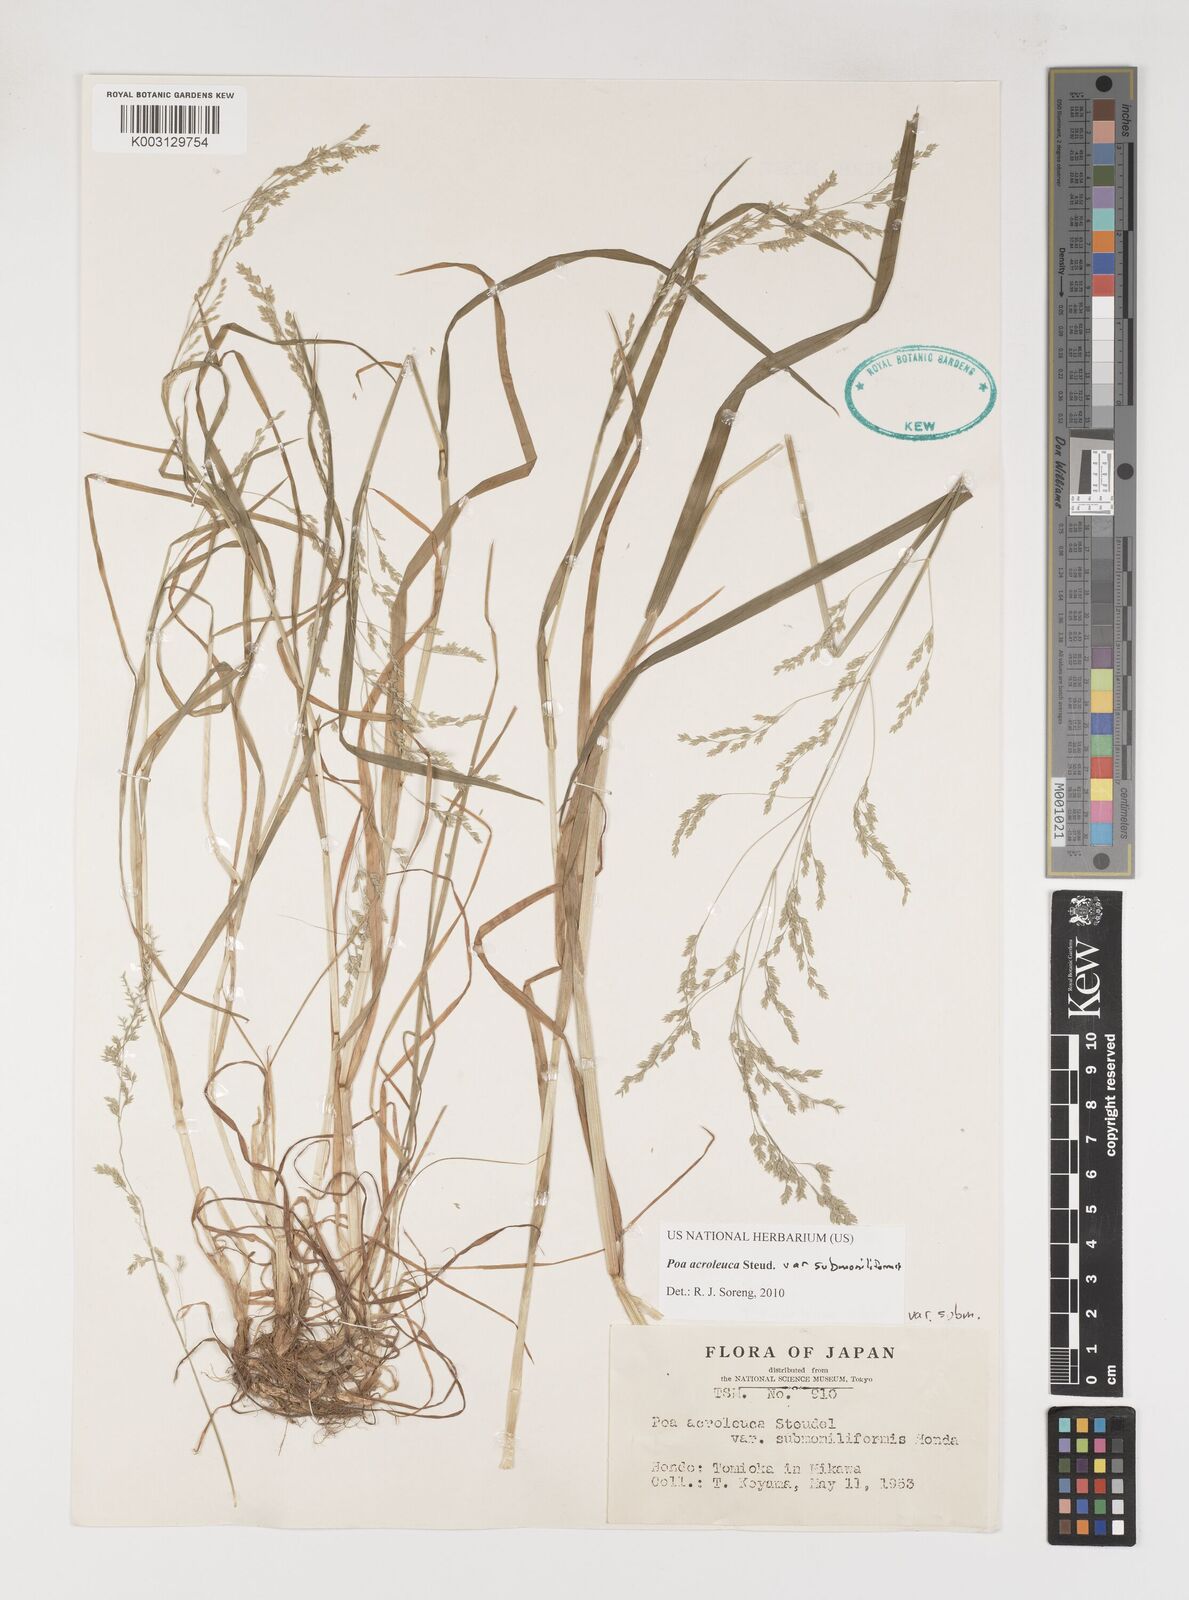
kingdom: Plantae
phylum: Tracheophyta
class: Liliopsida
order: Poales
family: Poaceae
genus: Poa
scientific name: Poa acroleuca
